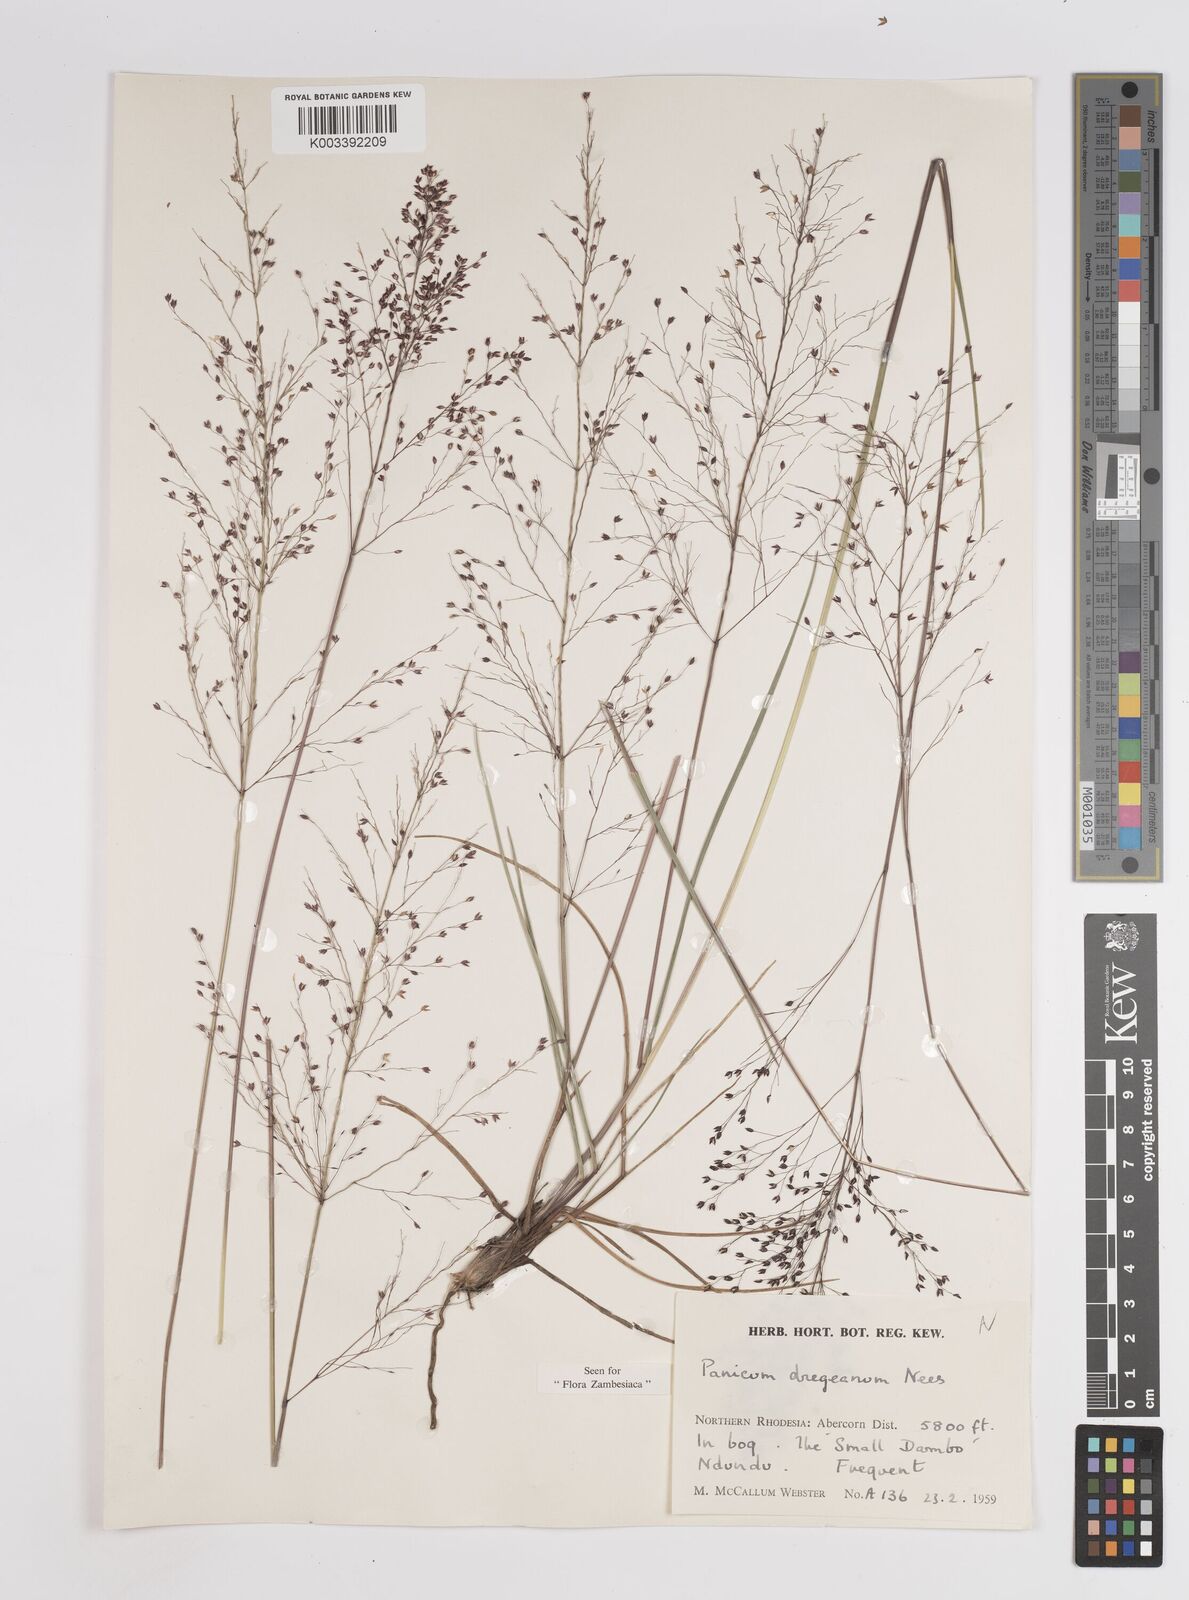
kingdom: Plantae
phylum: Tracheophyta
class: Liliopsida
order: Poales
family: Poaceae
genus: Panicum
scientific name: Panicum dregeanum
